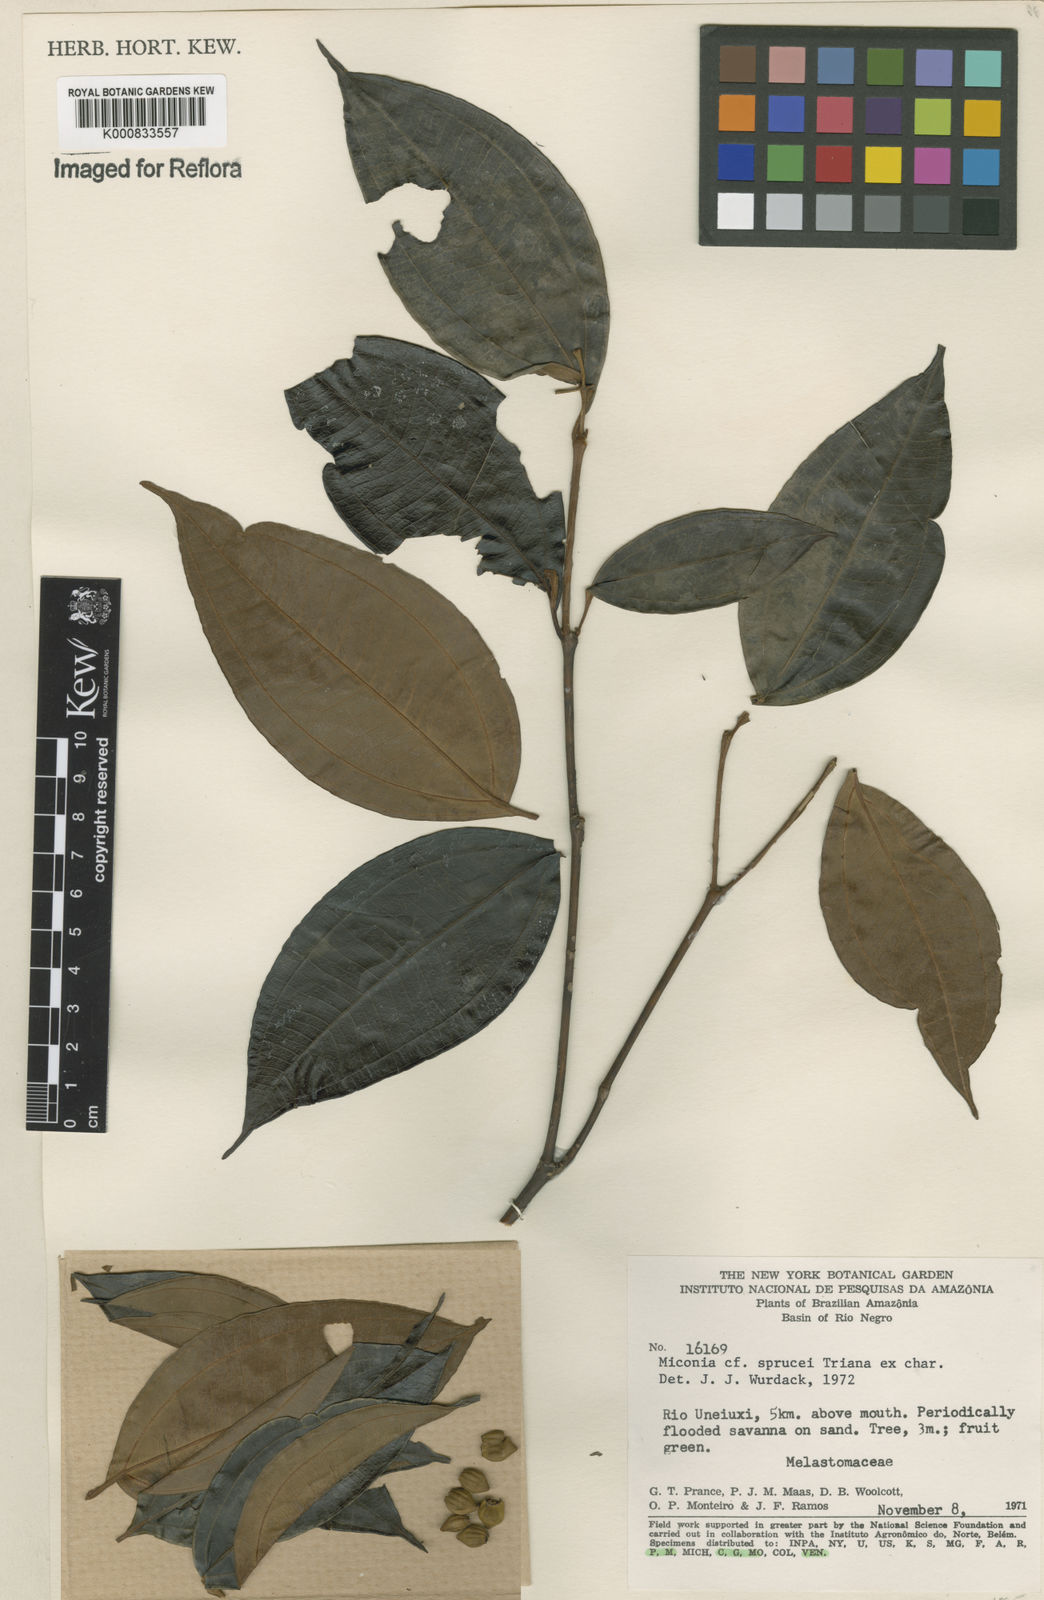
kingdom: Plantae
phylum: Tracheophyta
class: Magnoliopsida
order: Myrtales
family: Melastomataceae
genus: Miconia
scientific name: Miconia sprucei
